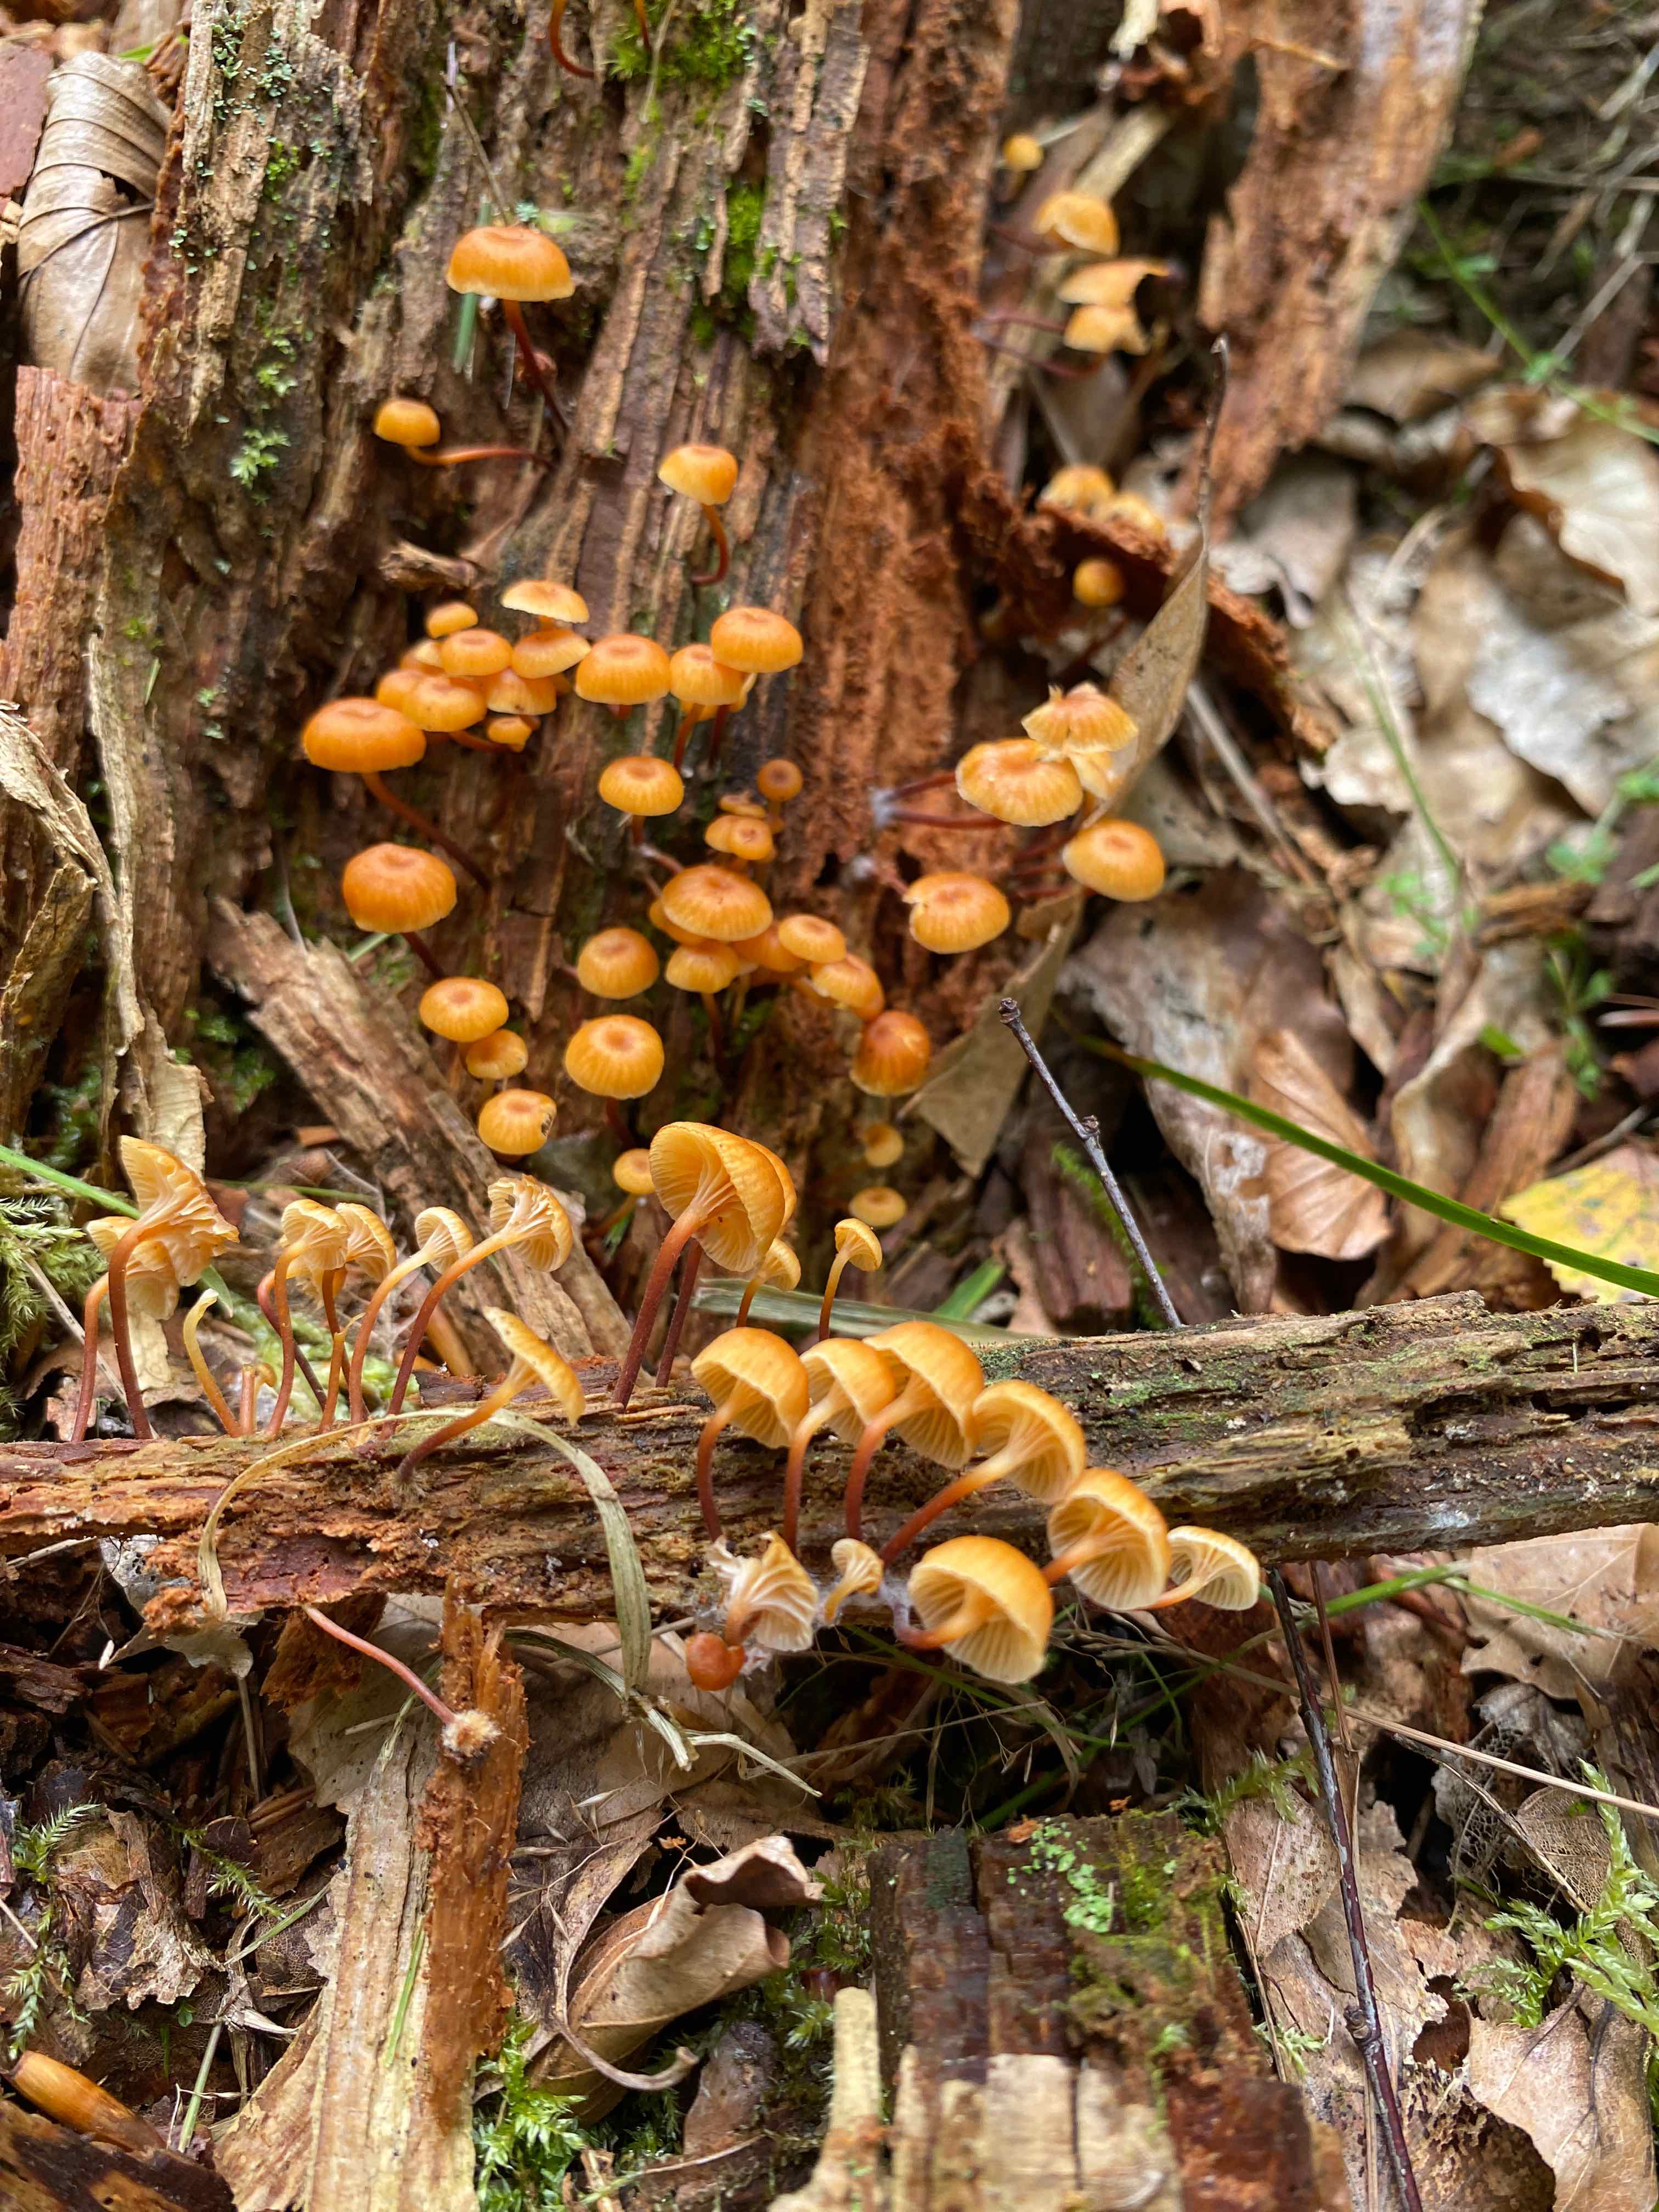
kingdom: Fungi
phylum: Basidiomycota
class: Agaricomycetes
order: Agaricales
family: Mycenaceae
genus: Xeromphalina
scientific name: Xeromphalina campanella
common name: klokke-tørhat
